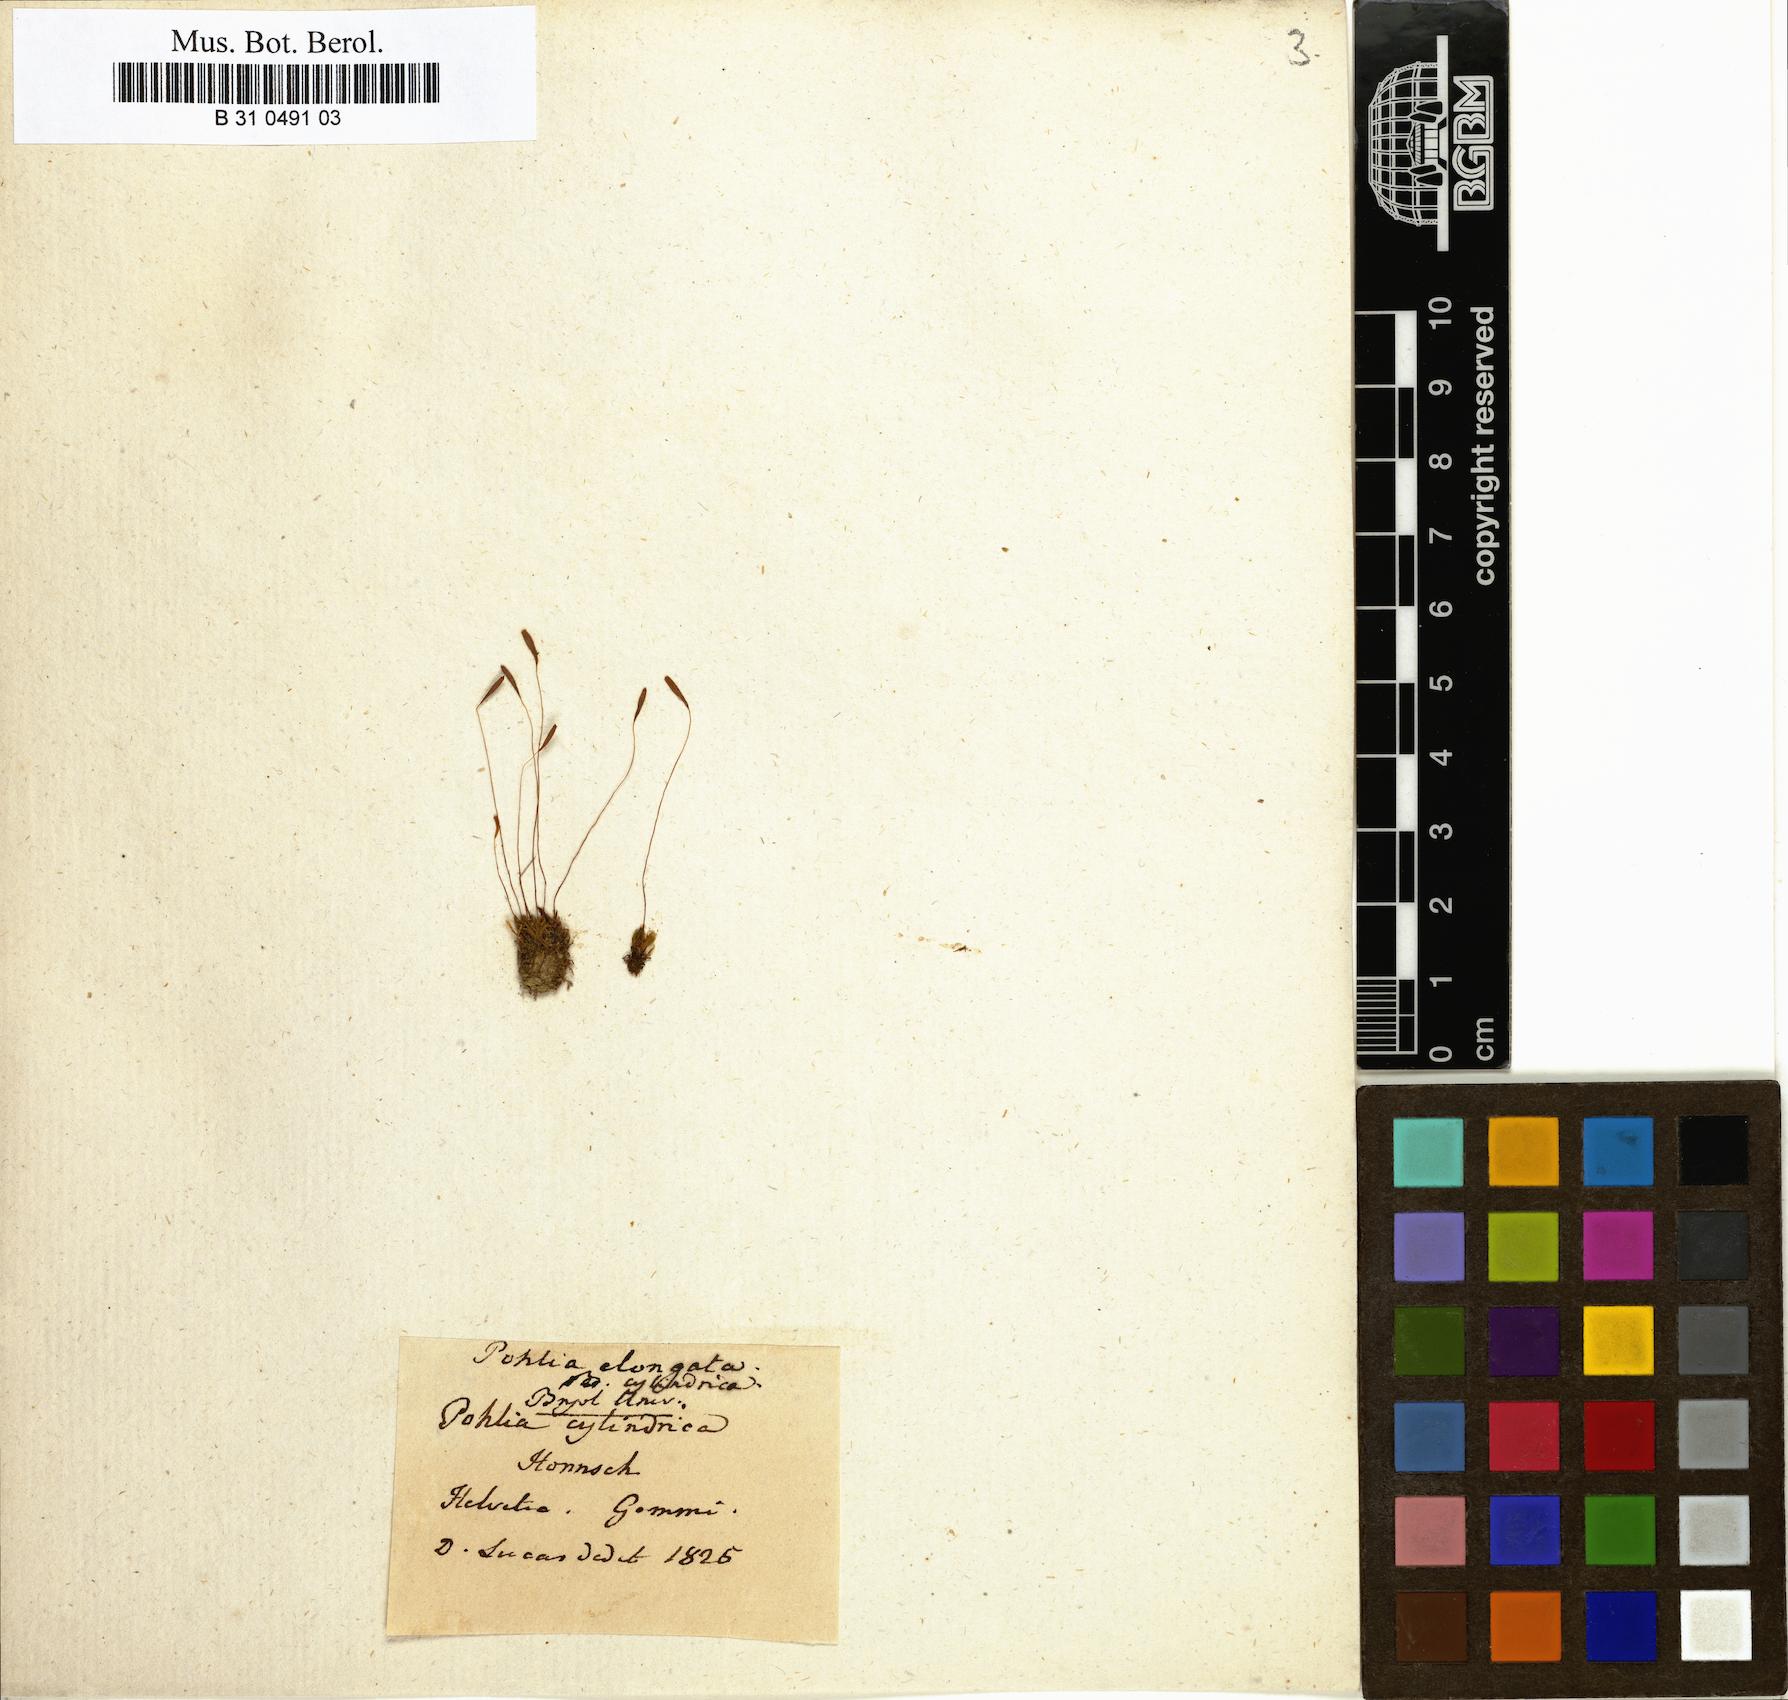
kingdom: Plantae
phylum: Bryophyta
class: Bryopsida
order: Bryales
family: Mniaceae
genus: Pohlia
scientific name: Pohlia elongata
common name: Long-fruited thread-moss
